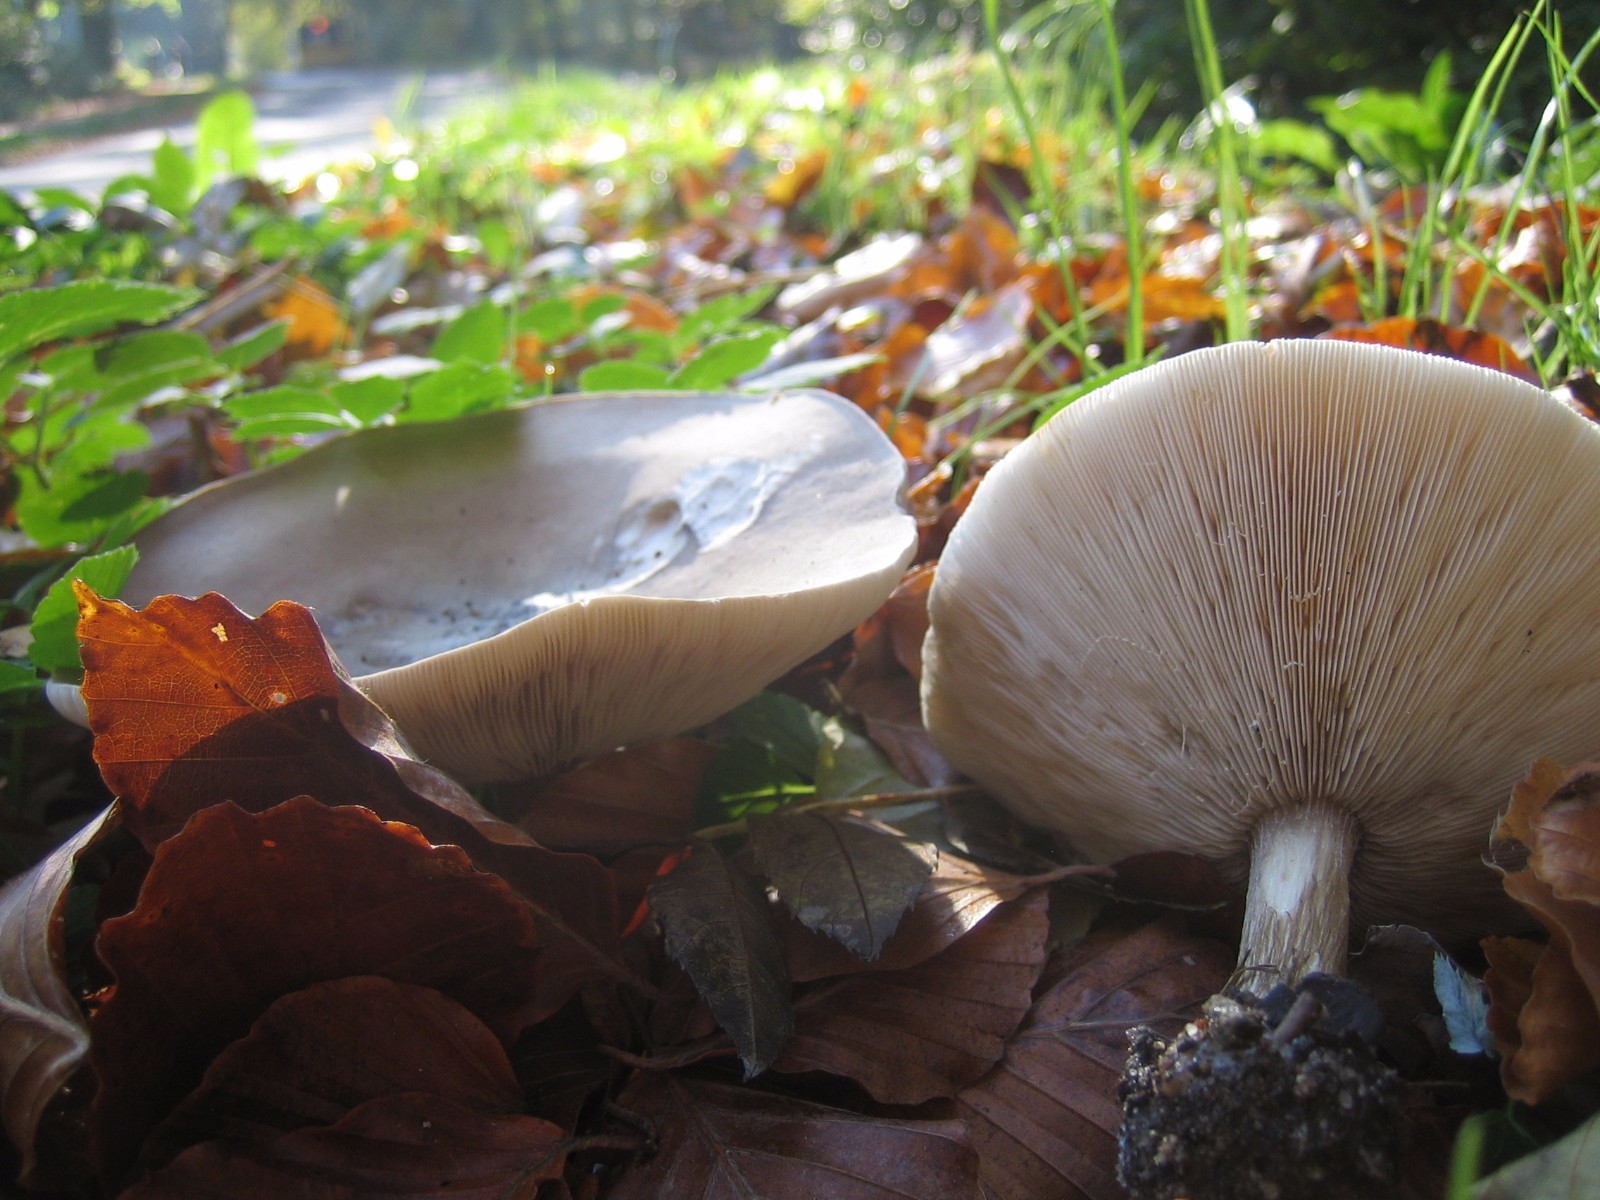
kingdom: Fungi
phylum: Basidiomycota
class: Agaricomycetes
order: Agaricales
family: Tricholomataceae
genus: Melanoleuca
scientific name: Melanoleuca
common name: munkehat
